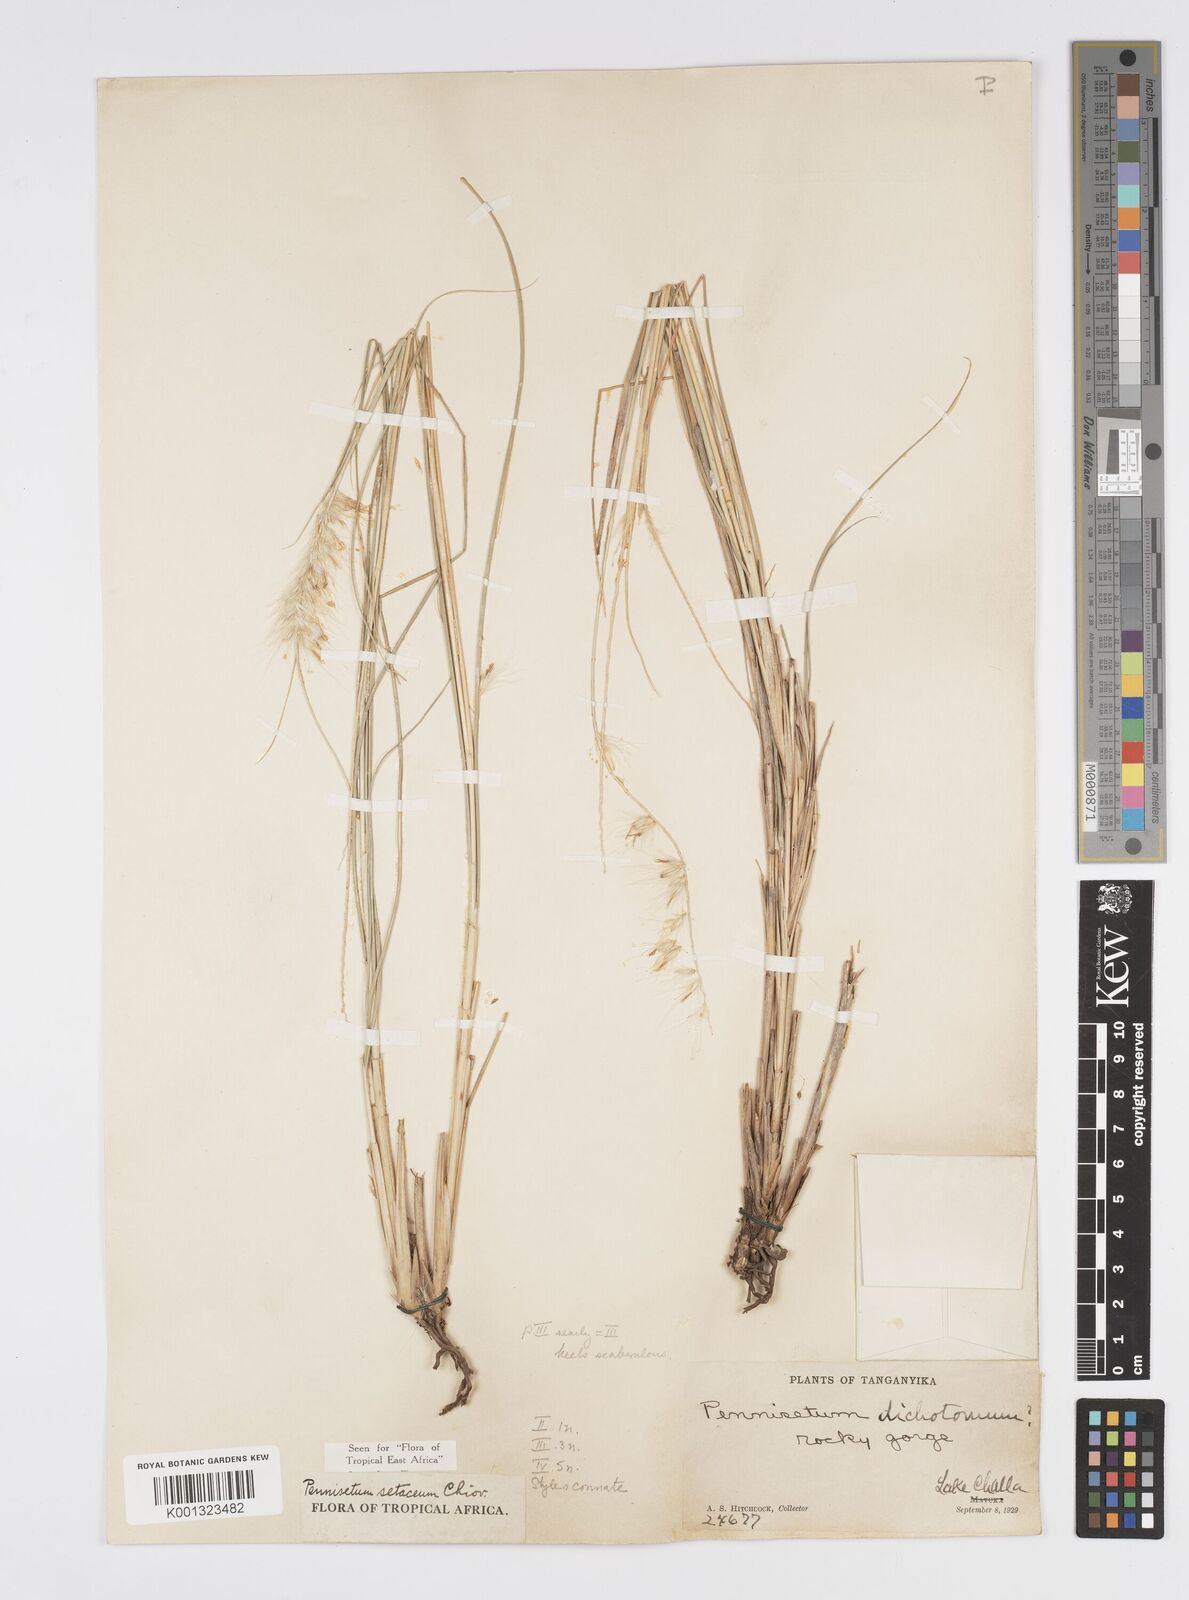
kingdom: Plantae
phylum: Tracheophyta
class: Liliopsida
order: Poales
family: Poaceae
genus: Cenchrus
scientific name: Cenchrus setaceus
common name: Crimson fountaingrass
